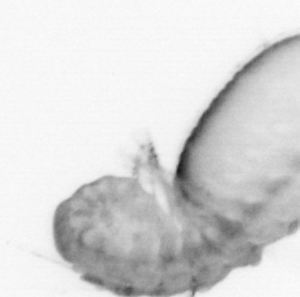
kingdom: Animalia
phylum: Annelida
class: Polychaeta
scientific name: Polychaeta
